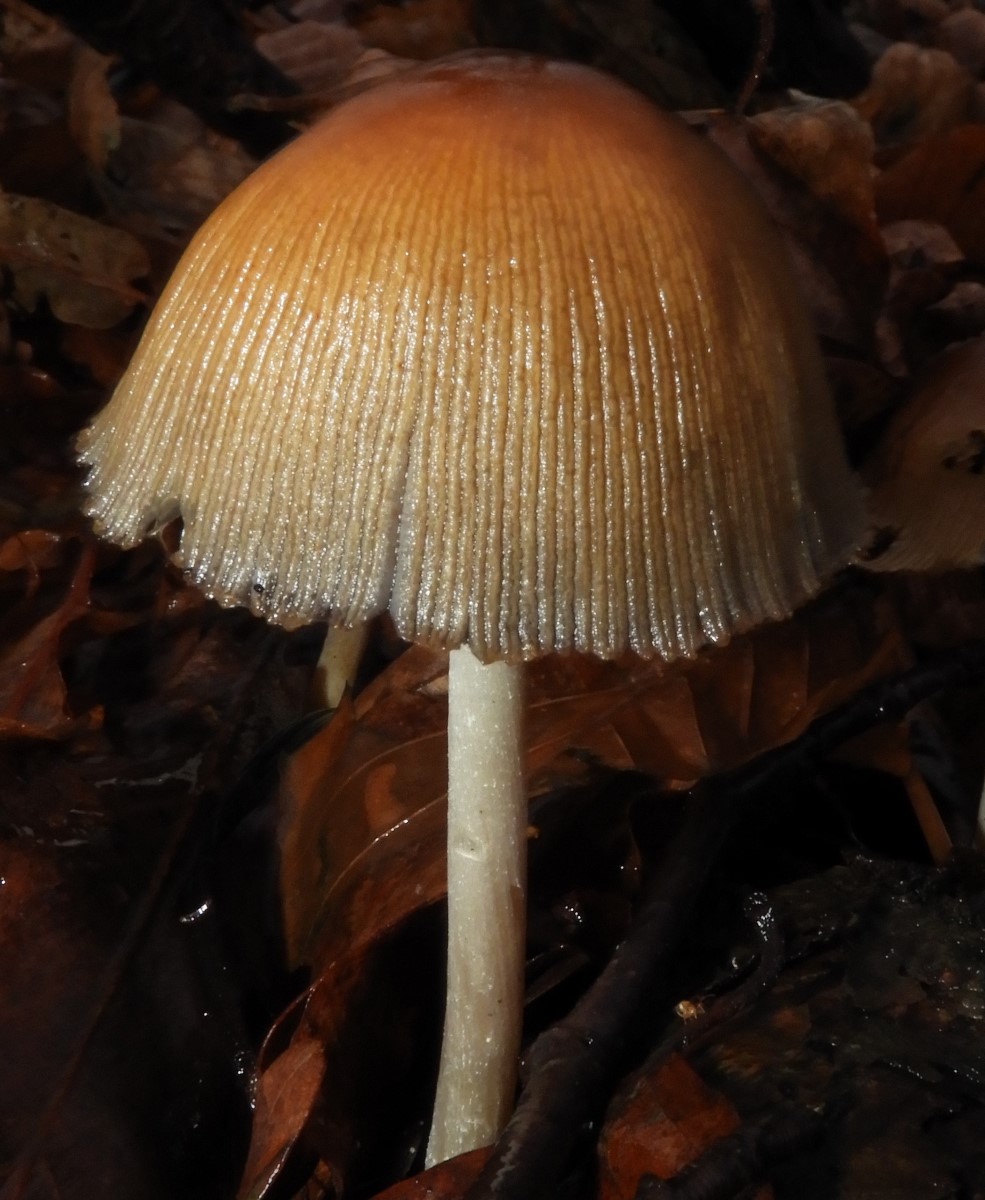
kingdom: Fungi
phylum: Basidiomycota
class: Agaricomycetes
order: Agaricales
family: Psathyrellaceae
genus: Coprinellus
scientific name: Coprinellus micaceus
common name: glimmer-blækhat
